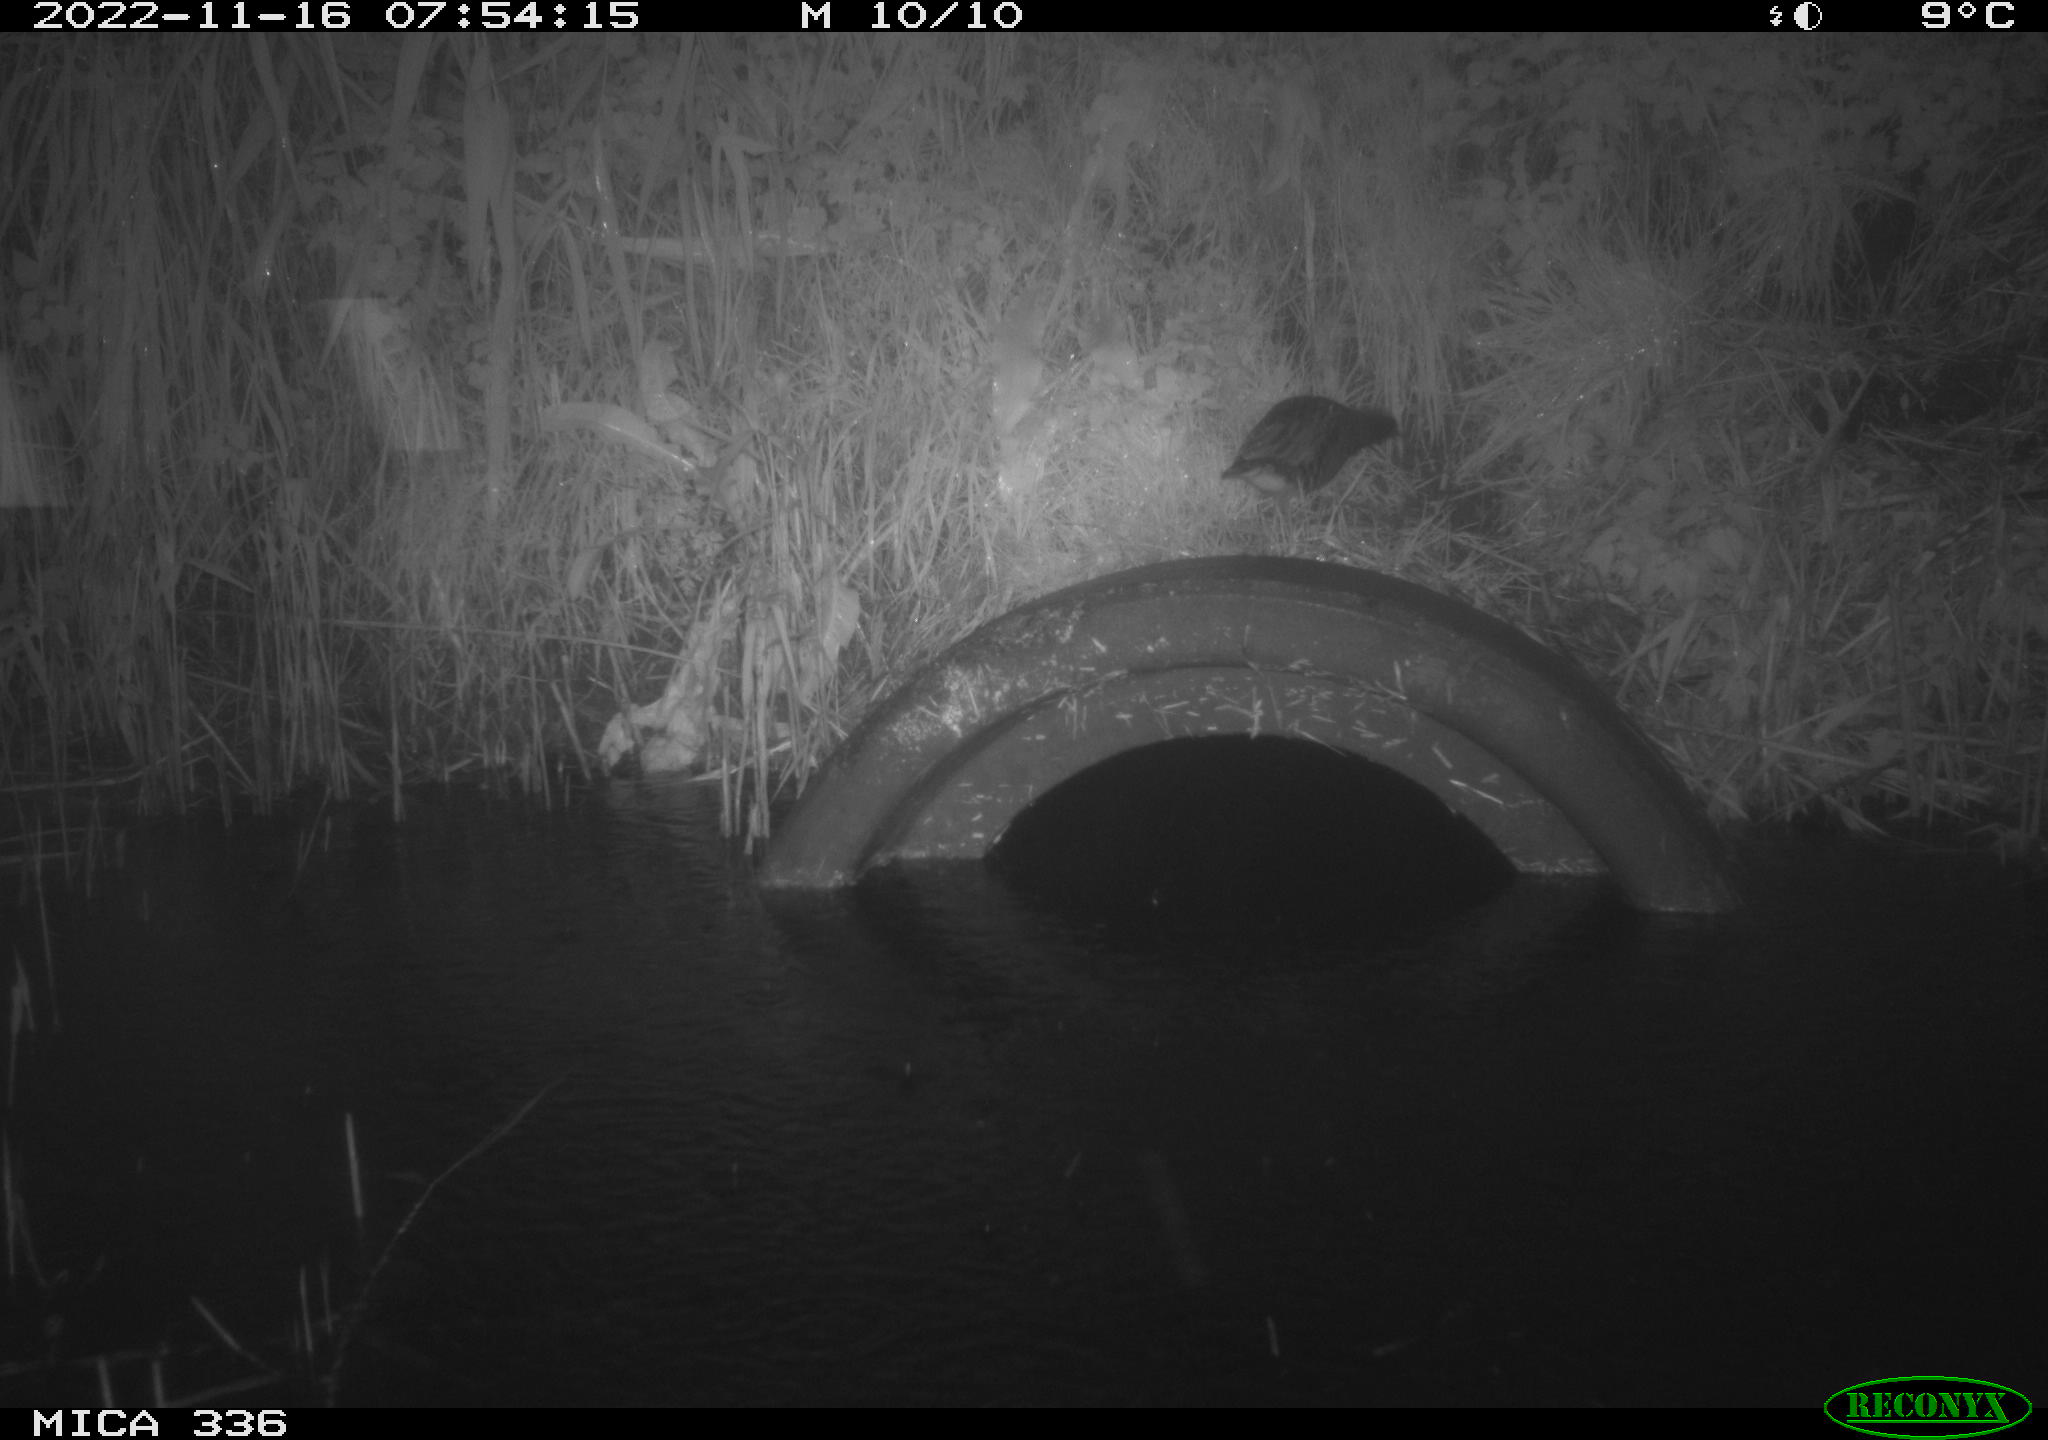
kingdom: Animalia
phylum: Chordata
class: Aves
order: Gruiformes
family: Rallidae
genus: Rallus
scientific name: Rallus aquaticus
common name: Water rail
